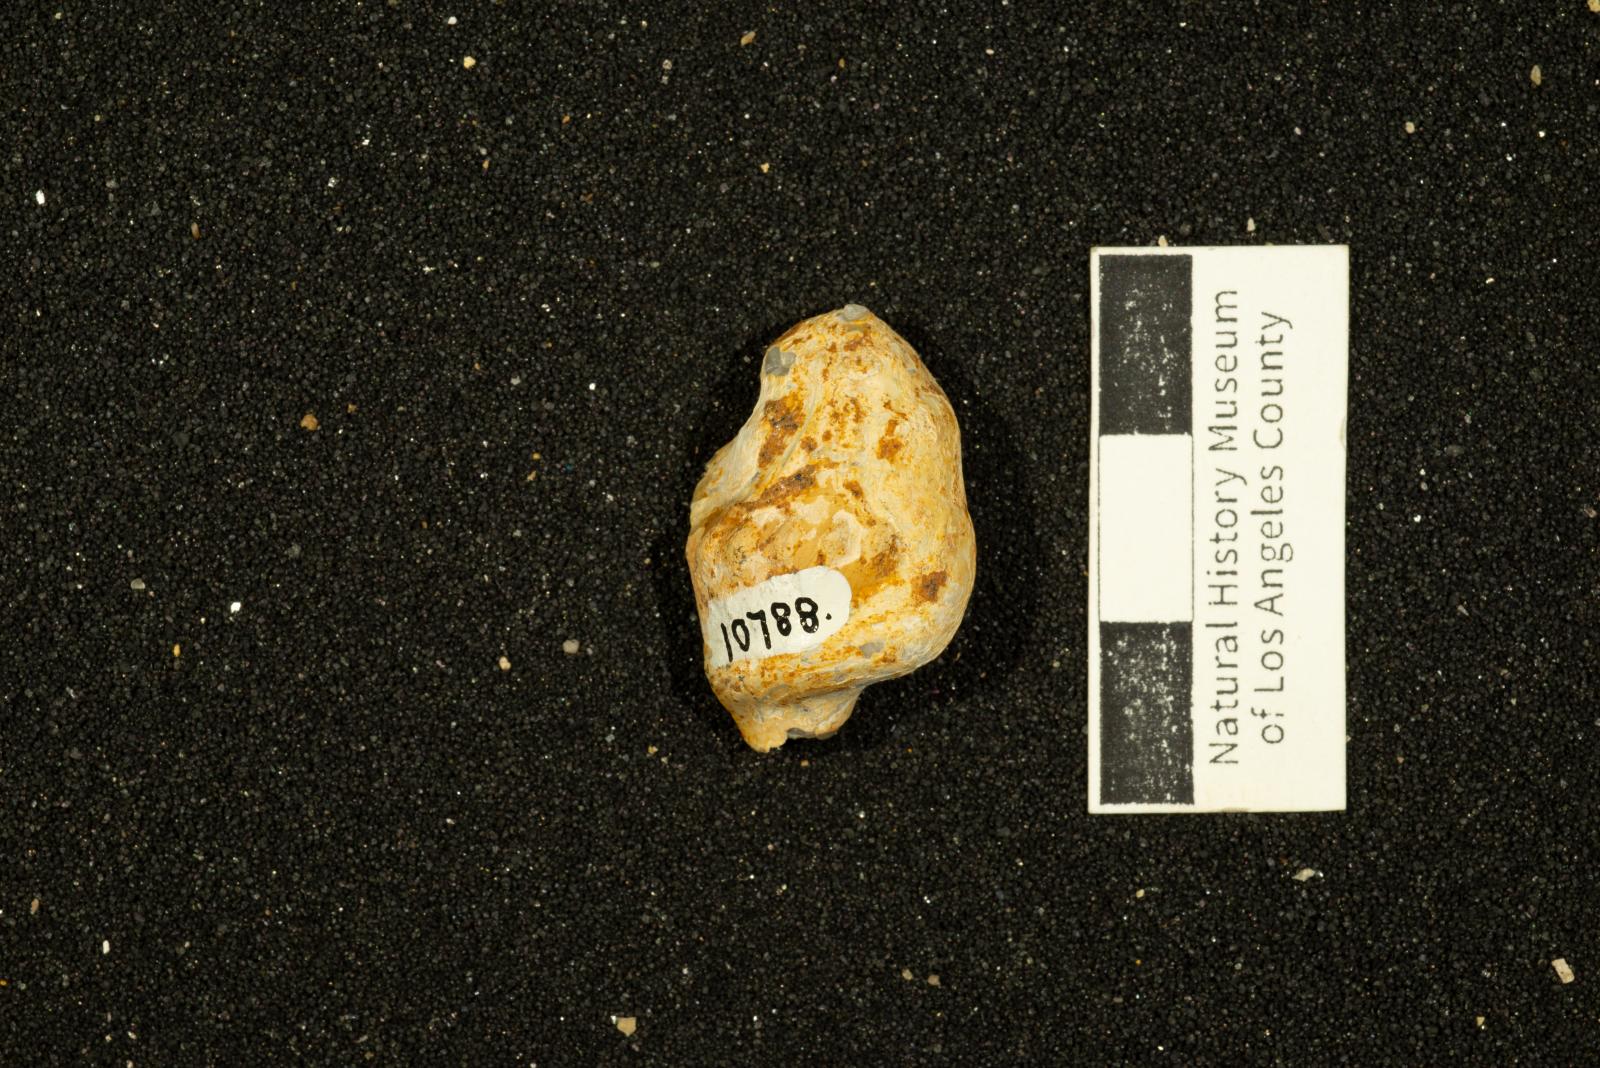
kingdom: Animalia
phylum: Mollusca
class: Gastropoda
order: Littorinimorpha
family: Aporrhaidae
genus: Pyktes
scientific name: Pyktes triphyllon
